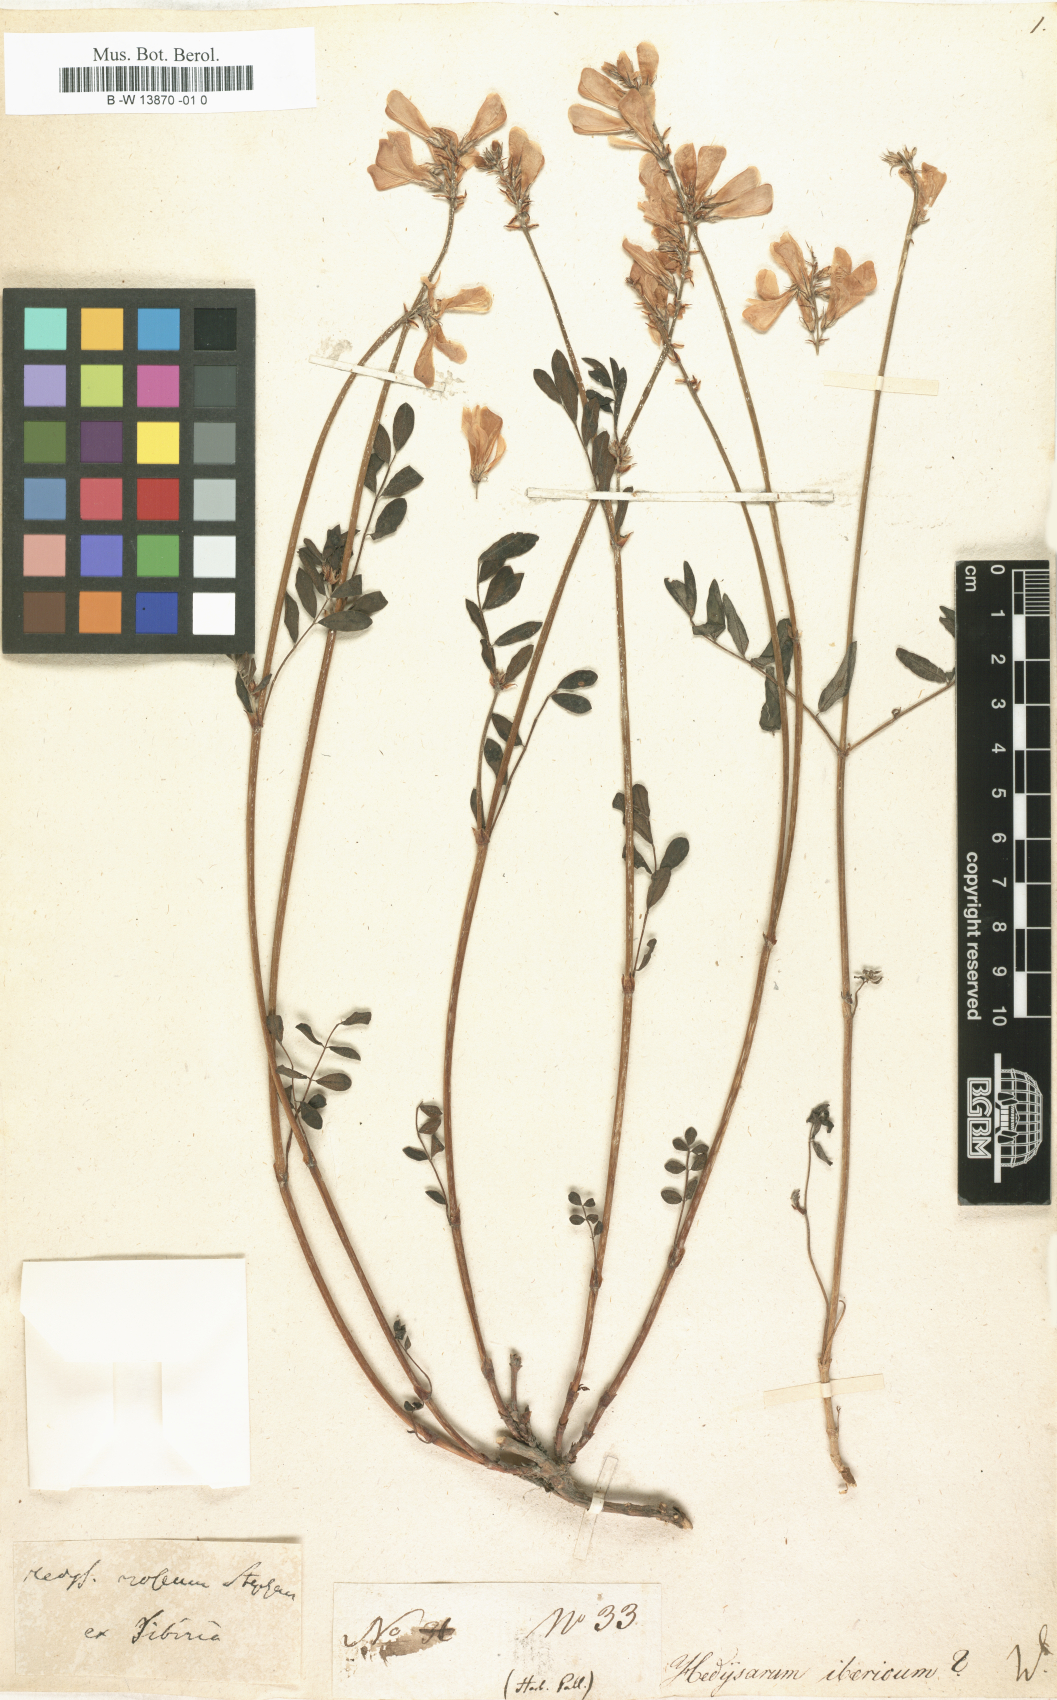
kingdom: Plantae
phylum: Tracheophyta
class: Magnoliopsida
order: Fabales
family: Fabaceae
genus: Hedysarum
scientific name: Hedysarum ibericum
